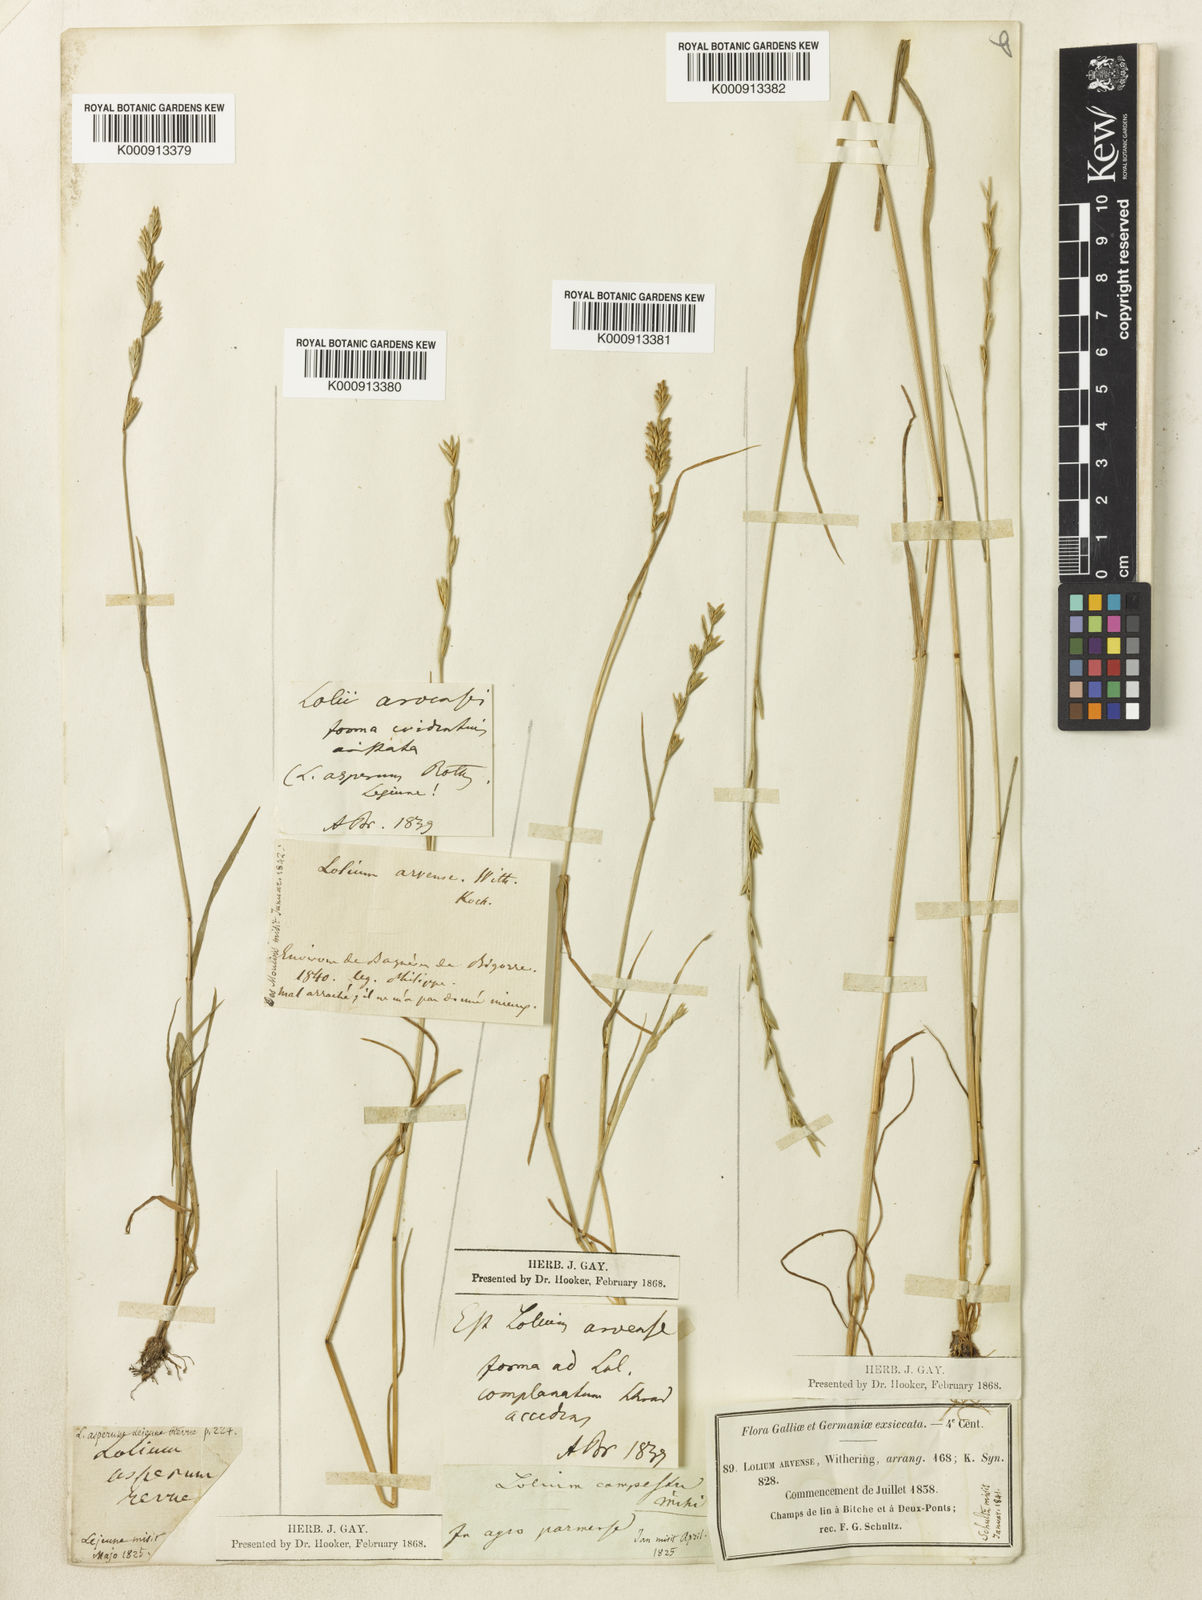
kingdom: Plantae
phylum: Tracheophyta
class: Liliopsida
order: Poales
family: Poaceae
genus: Lolium
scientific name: Lolium remotum
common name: Flaxfield rye-grass
